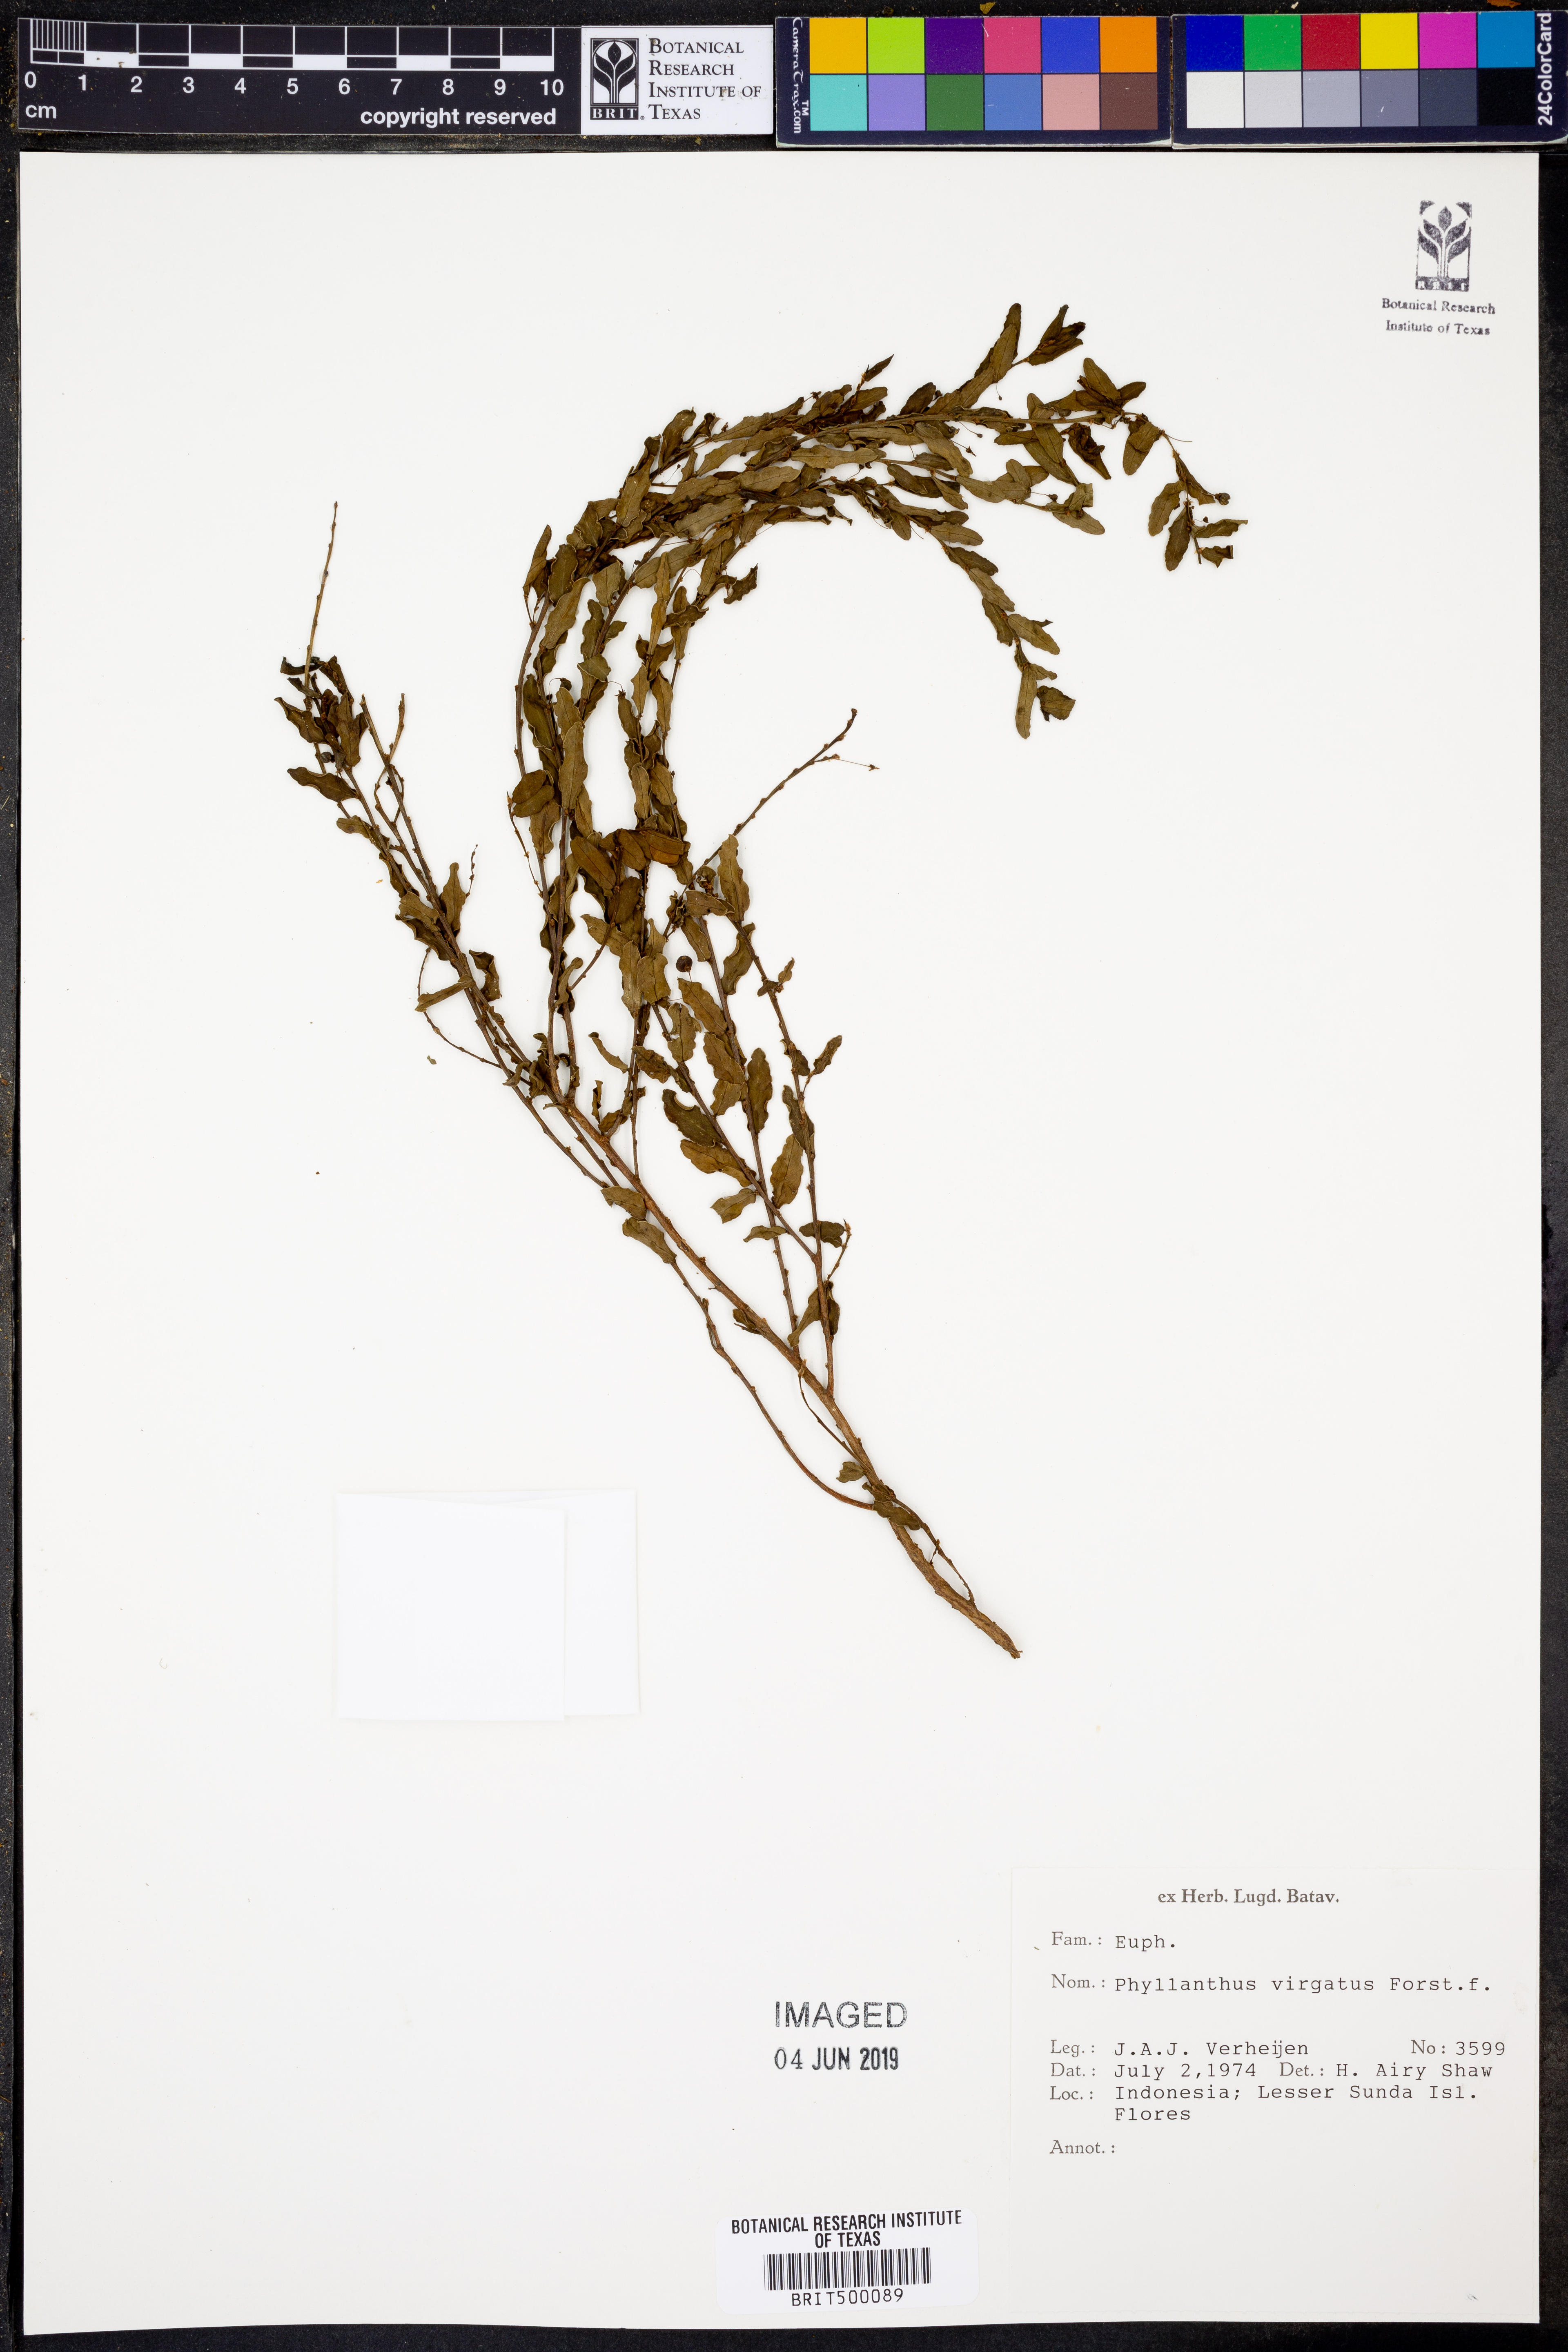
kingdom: Plantae
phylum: Tracheophyta
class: Magnoliopsida
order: Malpighiales
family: Phyllanthaceae
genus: Phyllanthus
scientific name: Phyllanthus virgatus
